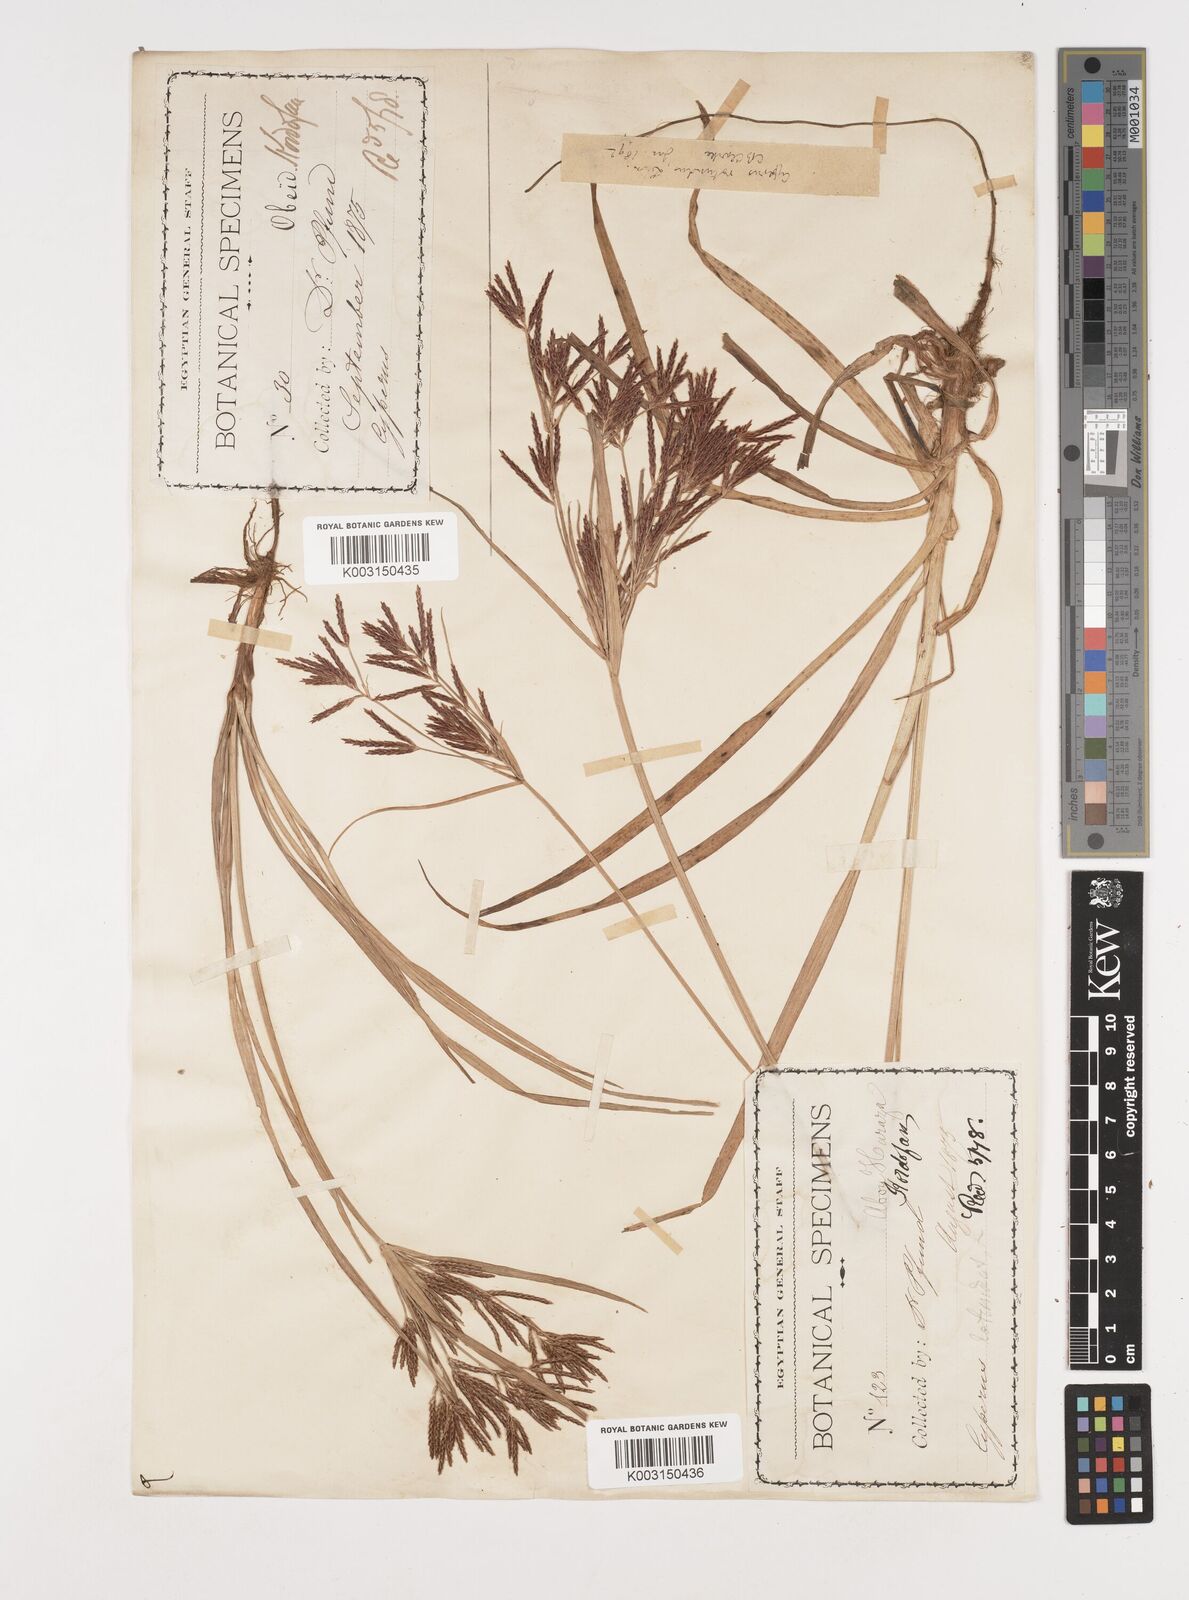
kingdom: Plantae
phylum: Tracheophyta
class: Liliopsida
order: Poales
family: Cyperaceae
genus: Cyperus
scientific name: Cyperus rotundus
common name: Nutgrass
